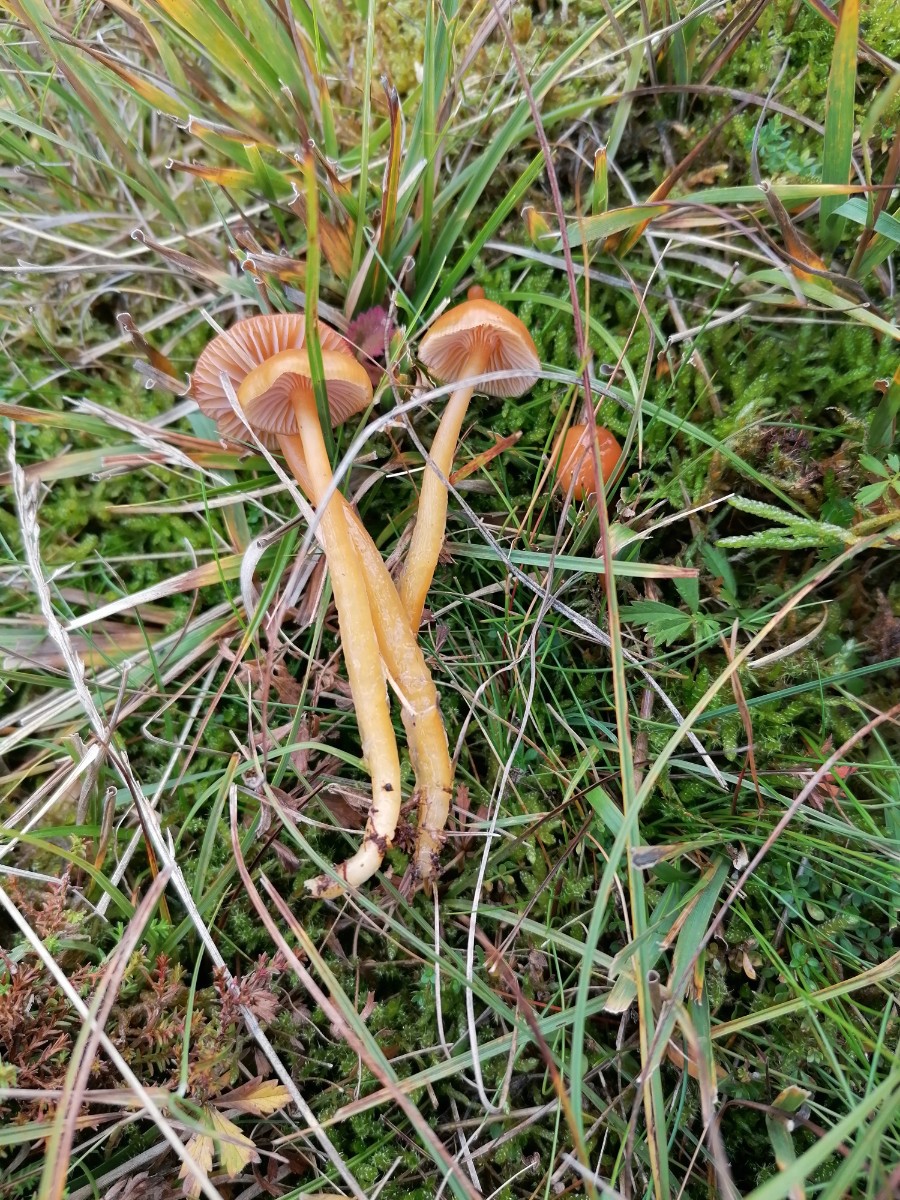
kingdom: Fungi
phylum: Basidiomycota
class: Agaricomycetes
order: Agaricales
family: Hygrophoraceae
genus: Gliophorus
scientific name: Gliophorus laetus
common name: brusk-vokshat
